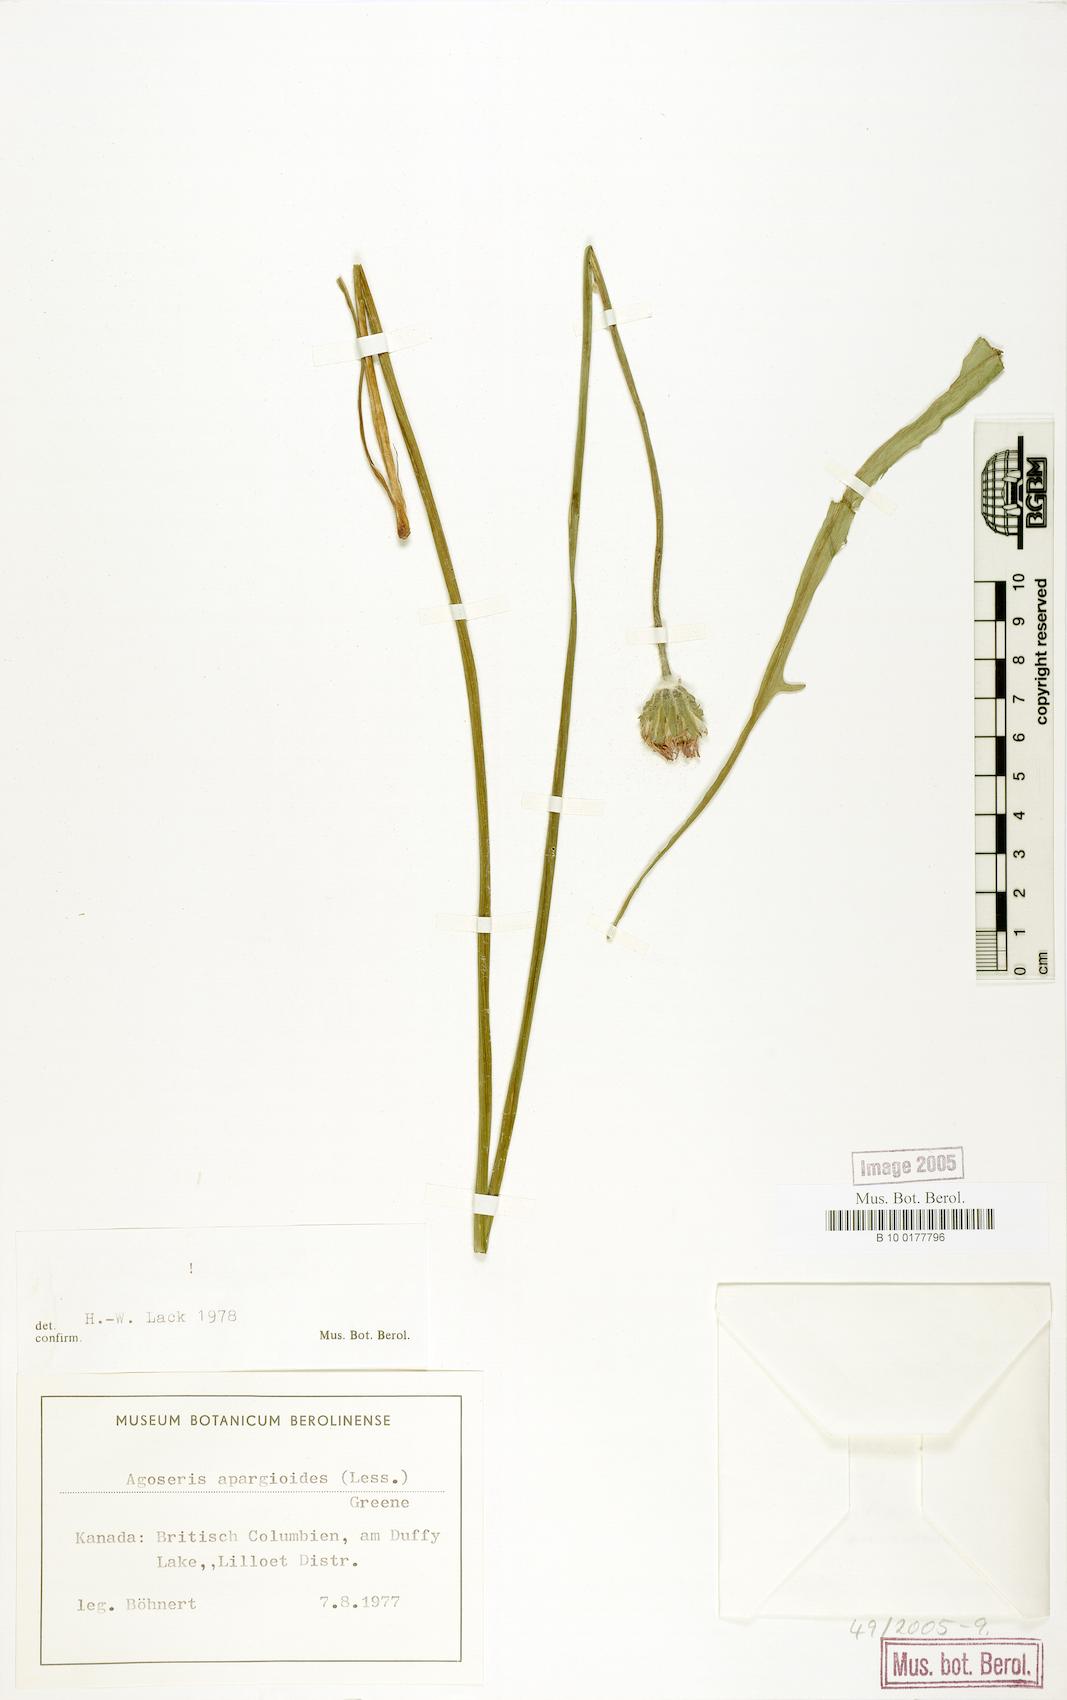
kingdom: Plantae
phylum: Tracheophyta
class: Magnoliopsida
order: Asterales
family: Asteraceae
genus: Agoseris
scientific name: Agoseris apargioides
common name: Point reyes agoseris
